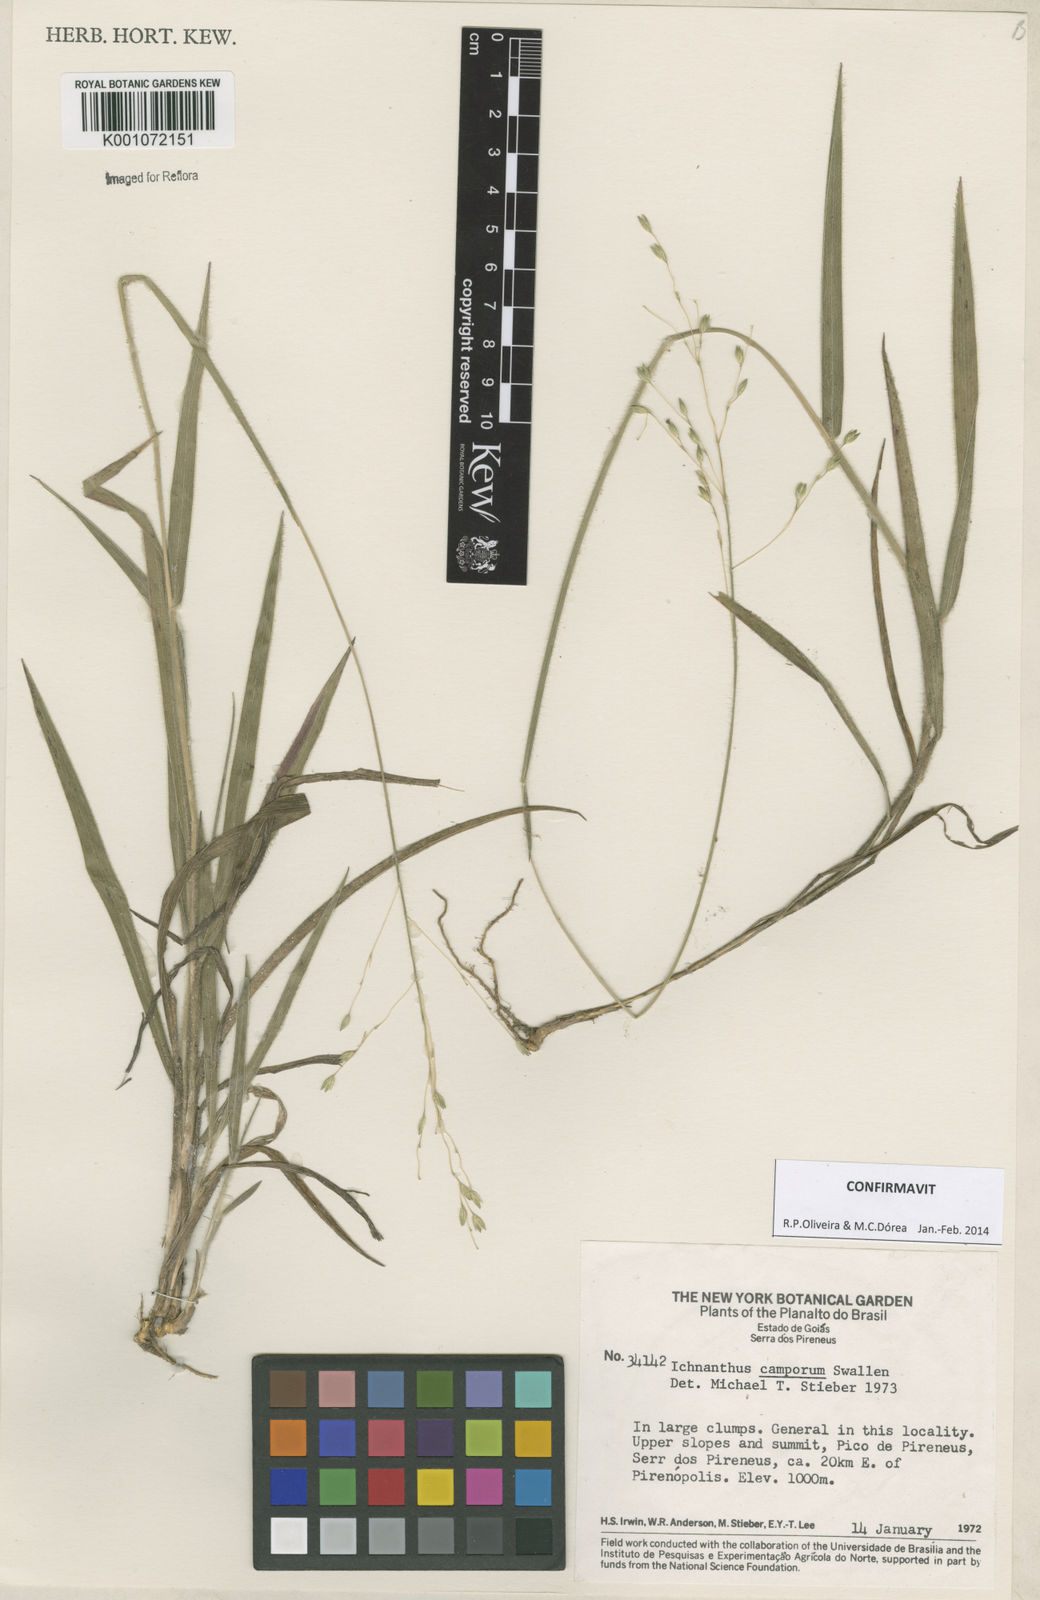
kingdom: Plantae
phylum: Tracheophyta
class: Liliopsida
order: Poales
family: Poaceae
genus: Oedochloa
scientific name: Oedochloa camporum
